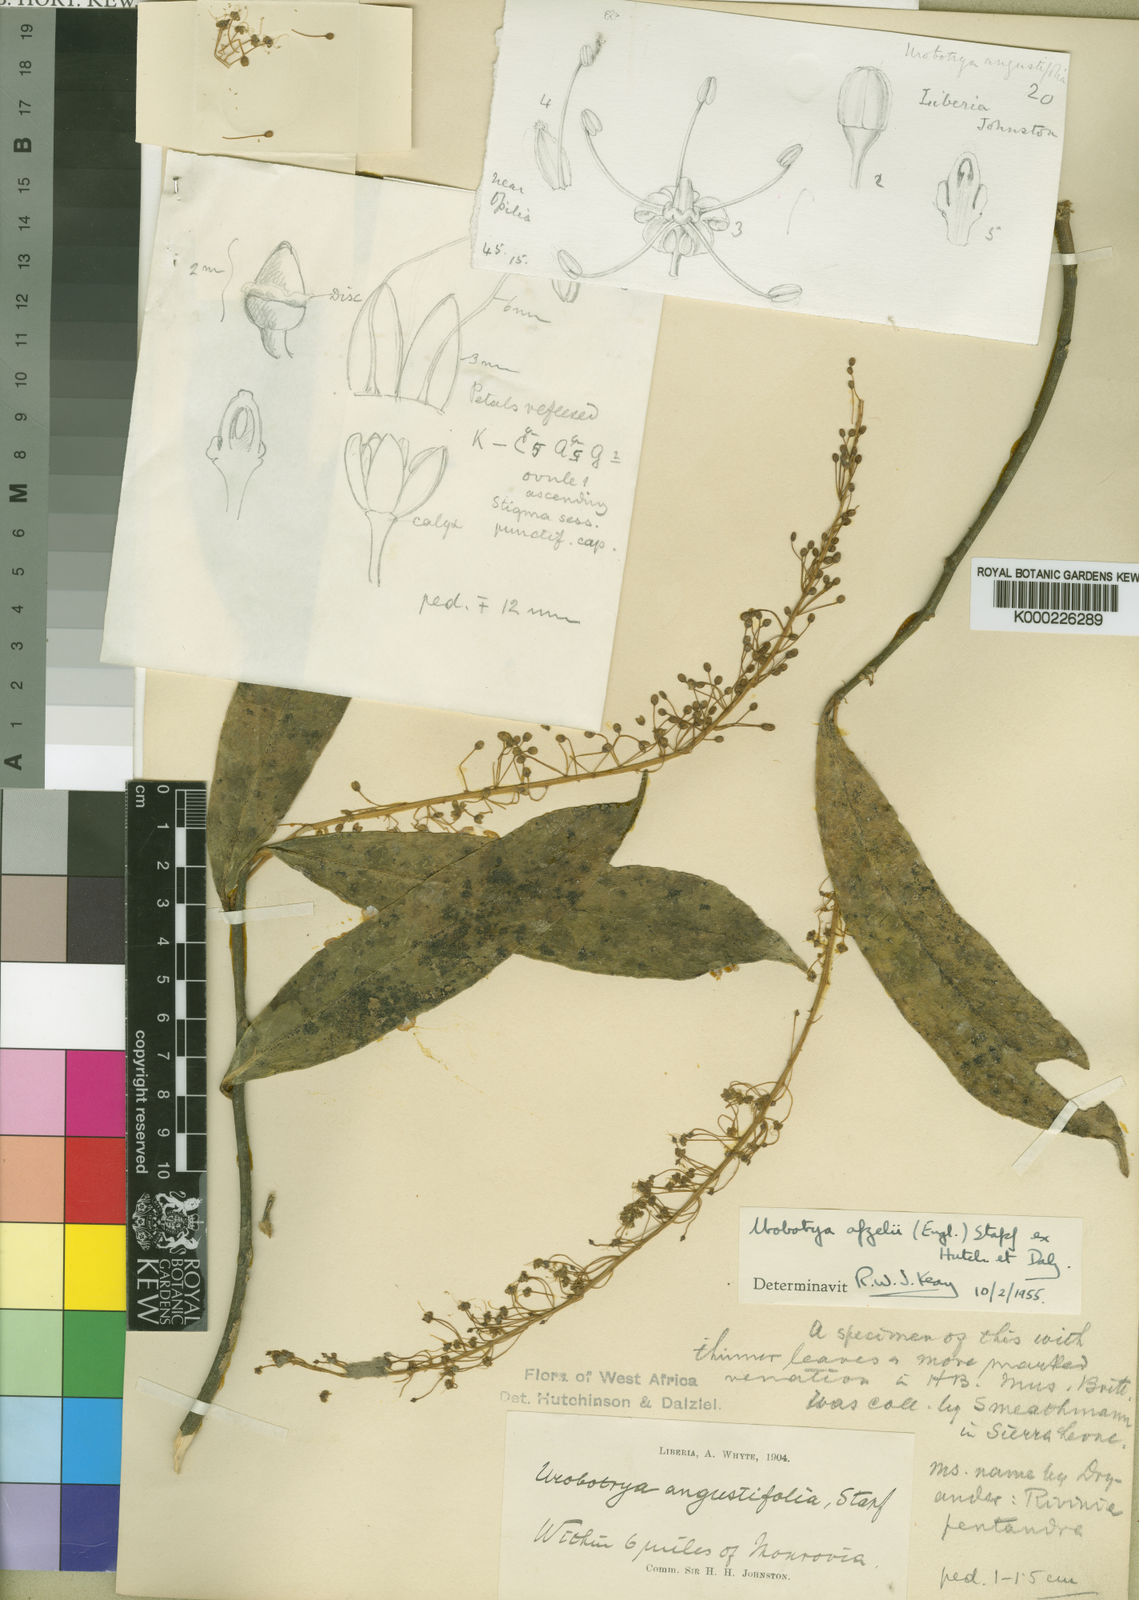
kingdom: Plantae
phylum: Tracheophyta
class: Magnoliopsida
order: Santalales
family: Opiliaceae
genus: Urobotrya
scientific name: Urobotrya congolana
